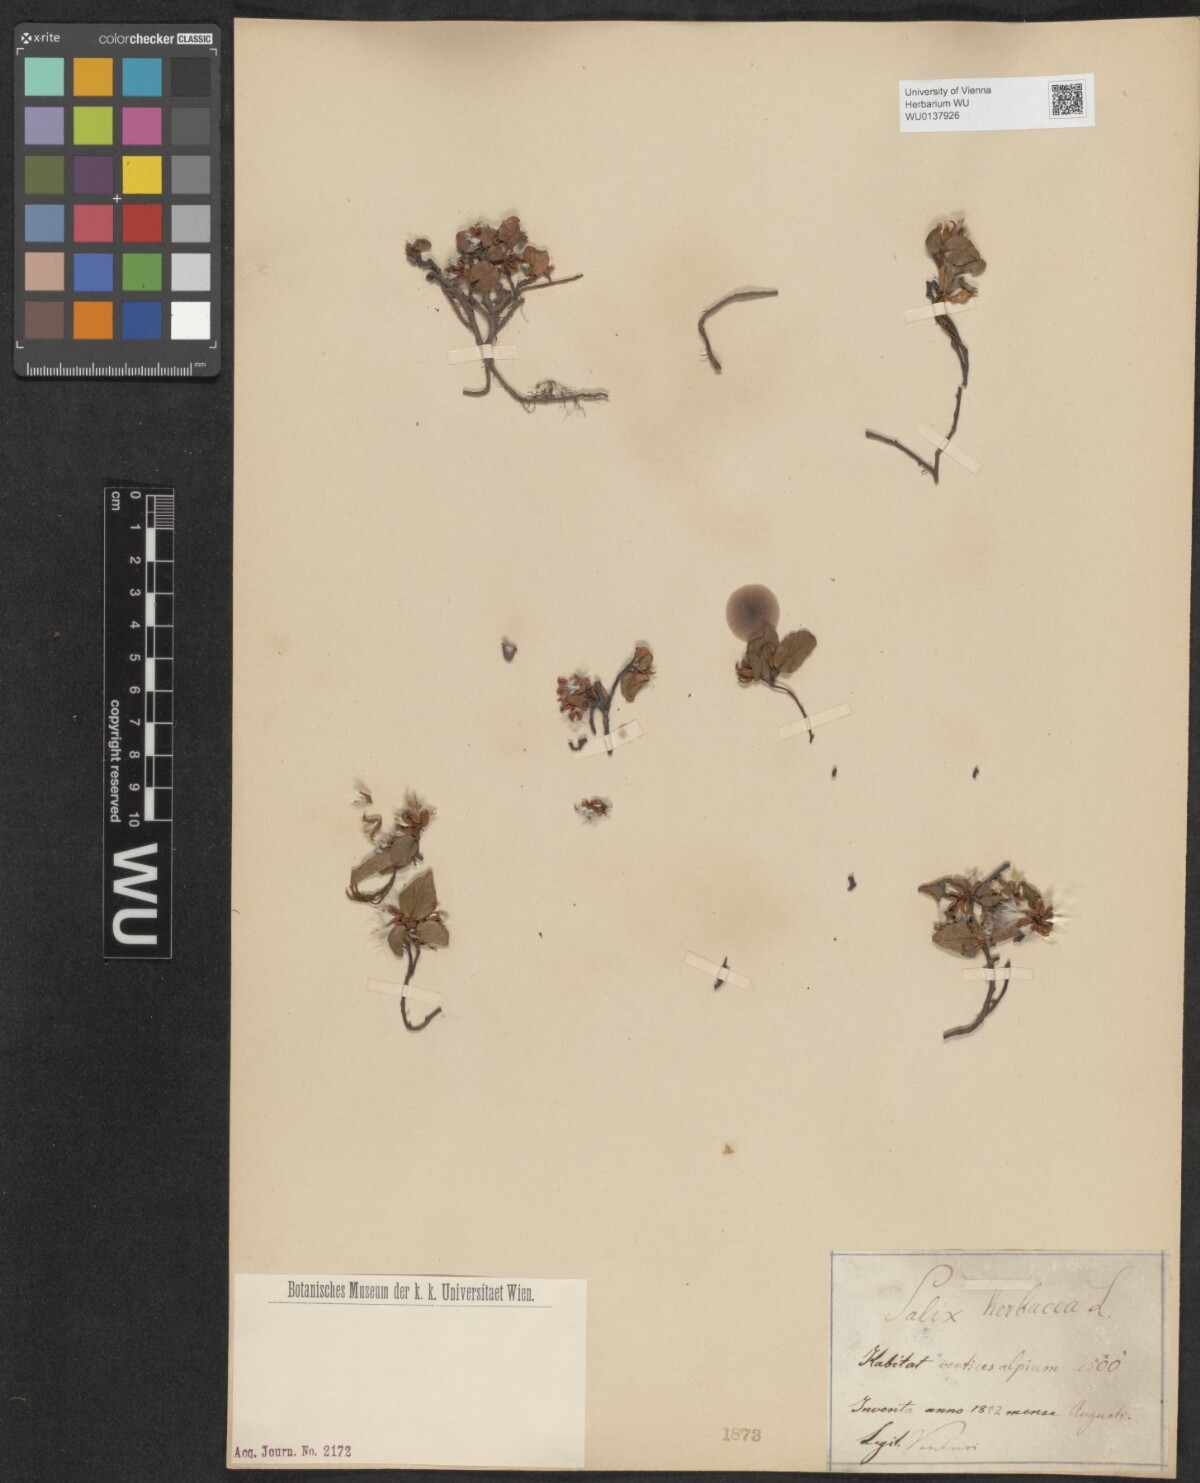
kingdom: Plantae
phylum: Tracheophyta
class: Magnoliopsida
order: Malpighiales
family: Salicaceae
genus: Salix
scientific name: Salix herbacea
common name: Dwarf willow
